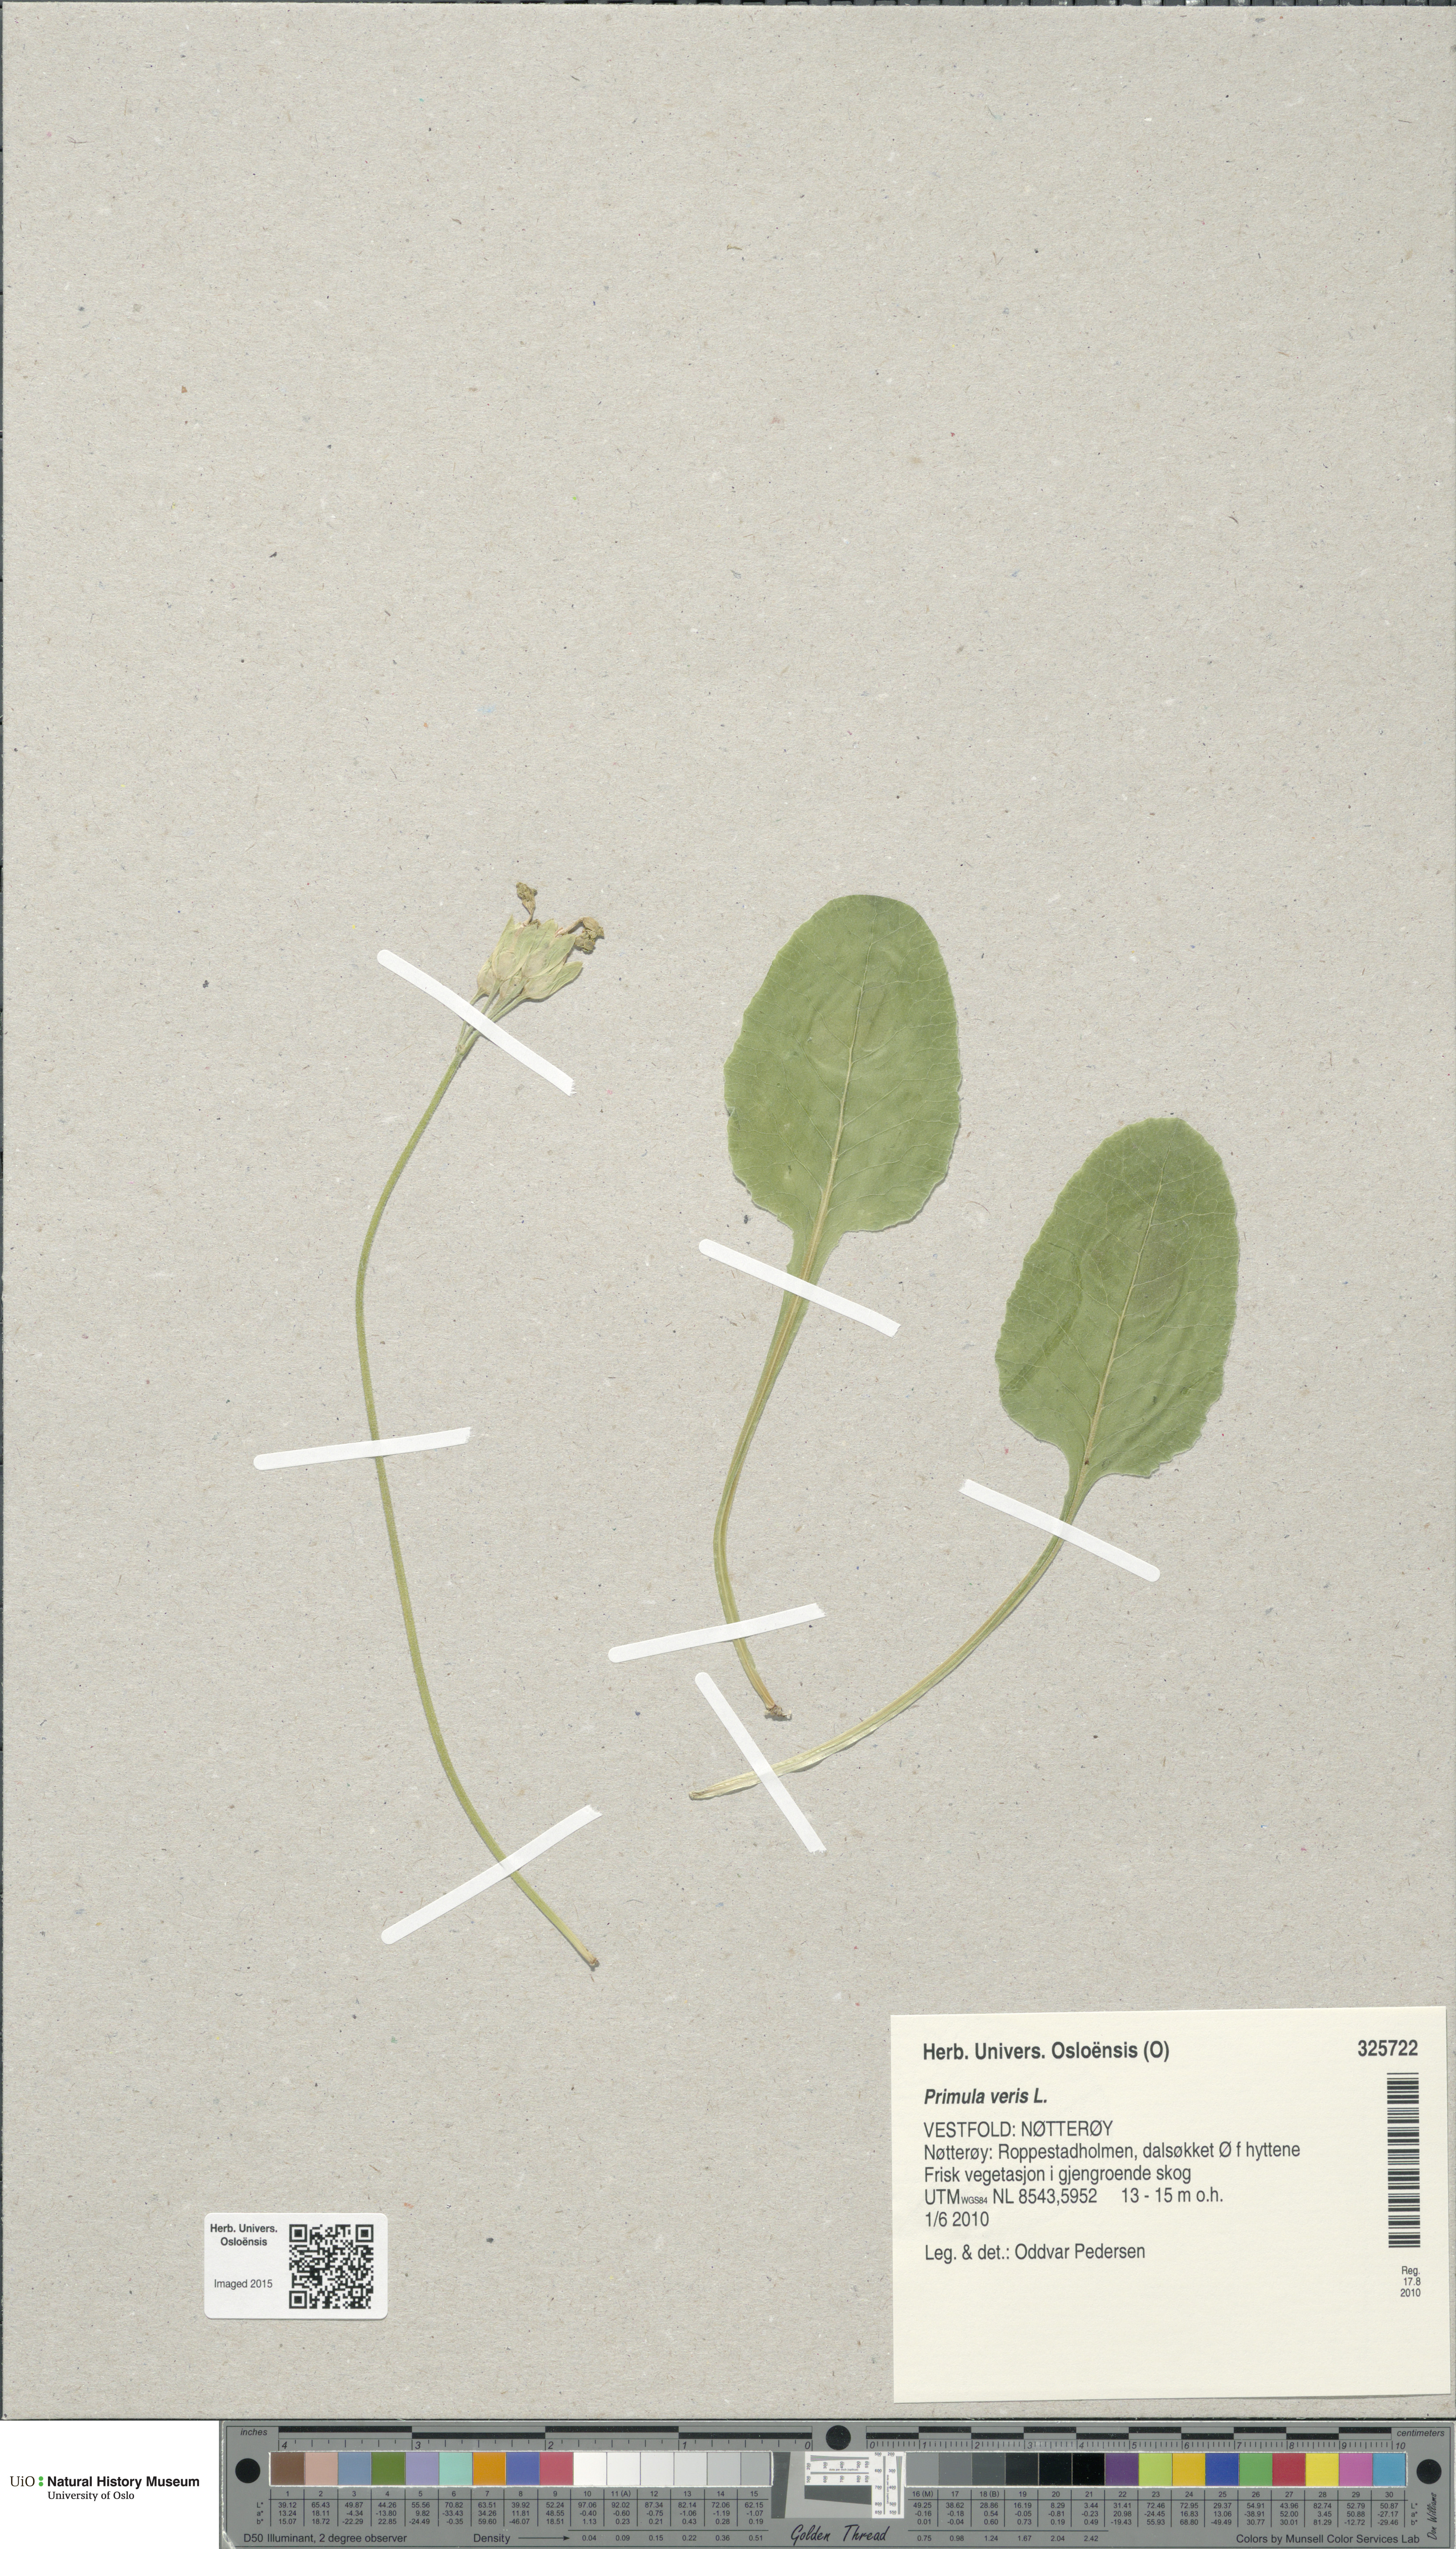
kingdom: Plantae
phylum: Tracheophyta
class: Magnoliopsida
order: Ericales
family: Primulaceae
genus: Primula
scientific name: Primula veris
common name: Cowslip
